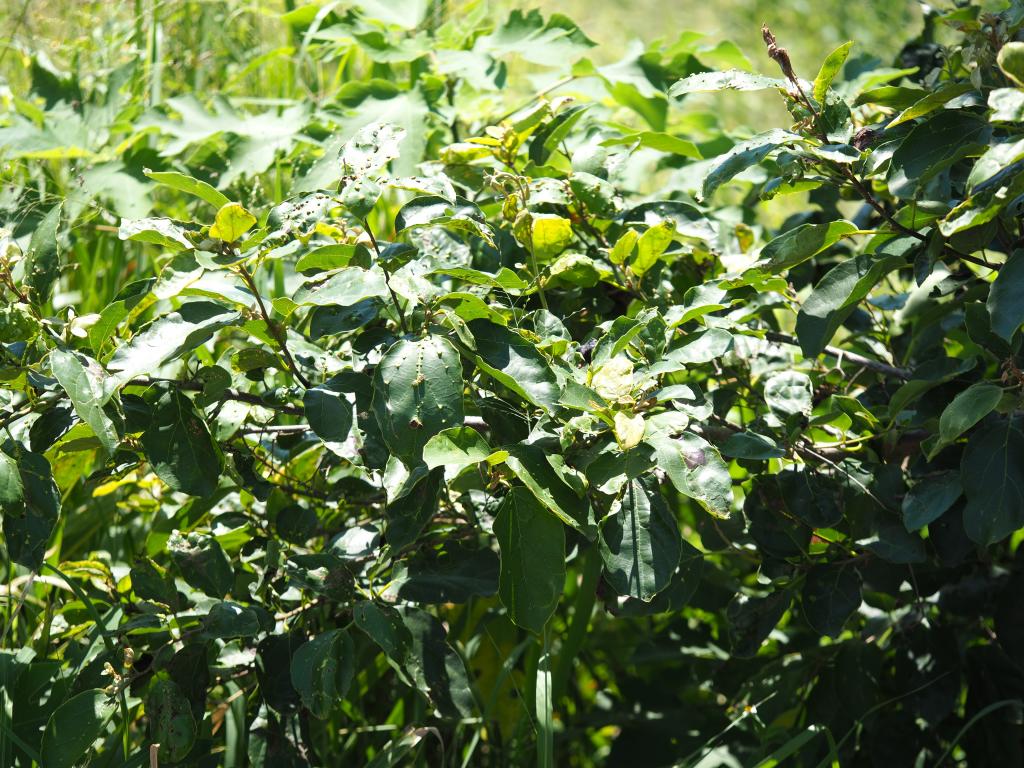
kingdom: Plantae
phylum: Tracheophyta
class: Magnoliopsida
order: Boraginales
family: Cordiaceae
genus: Cordia
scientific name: Cordia dichotoma
